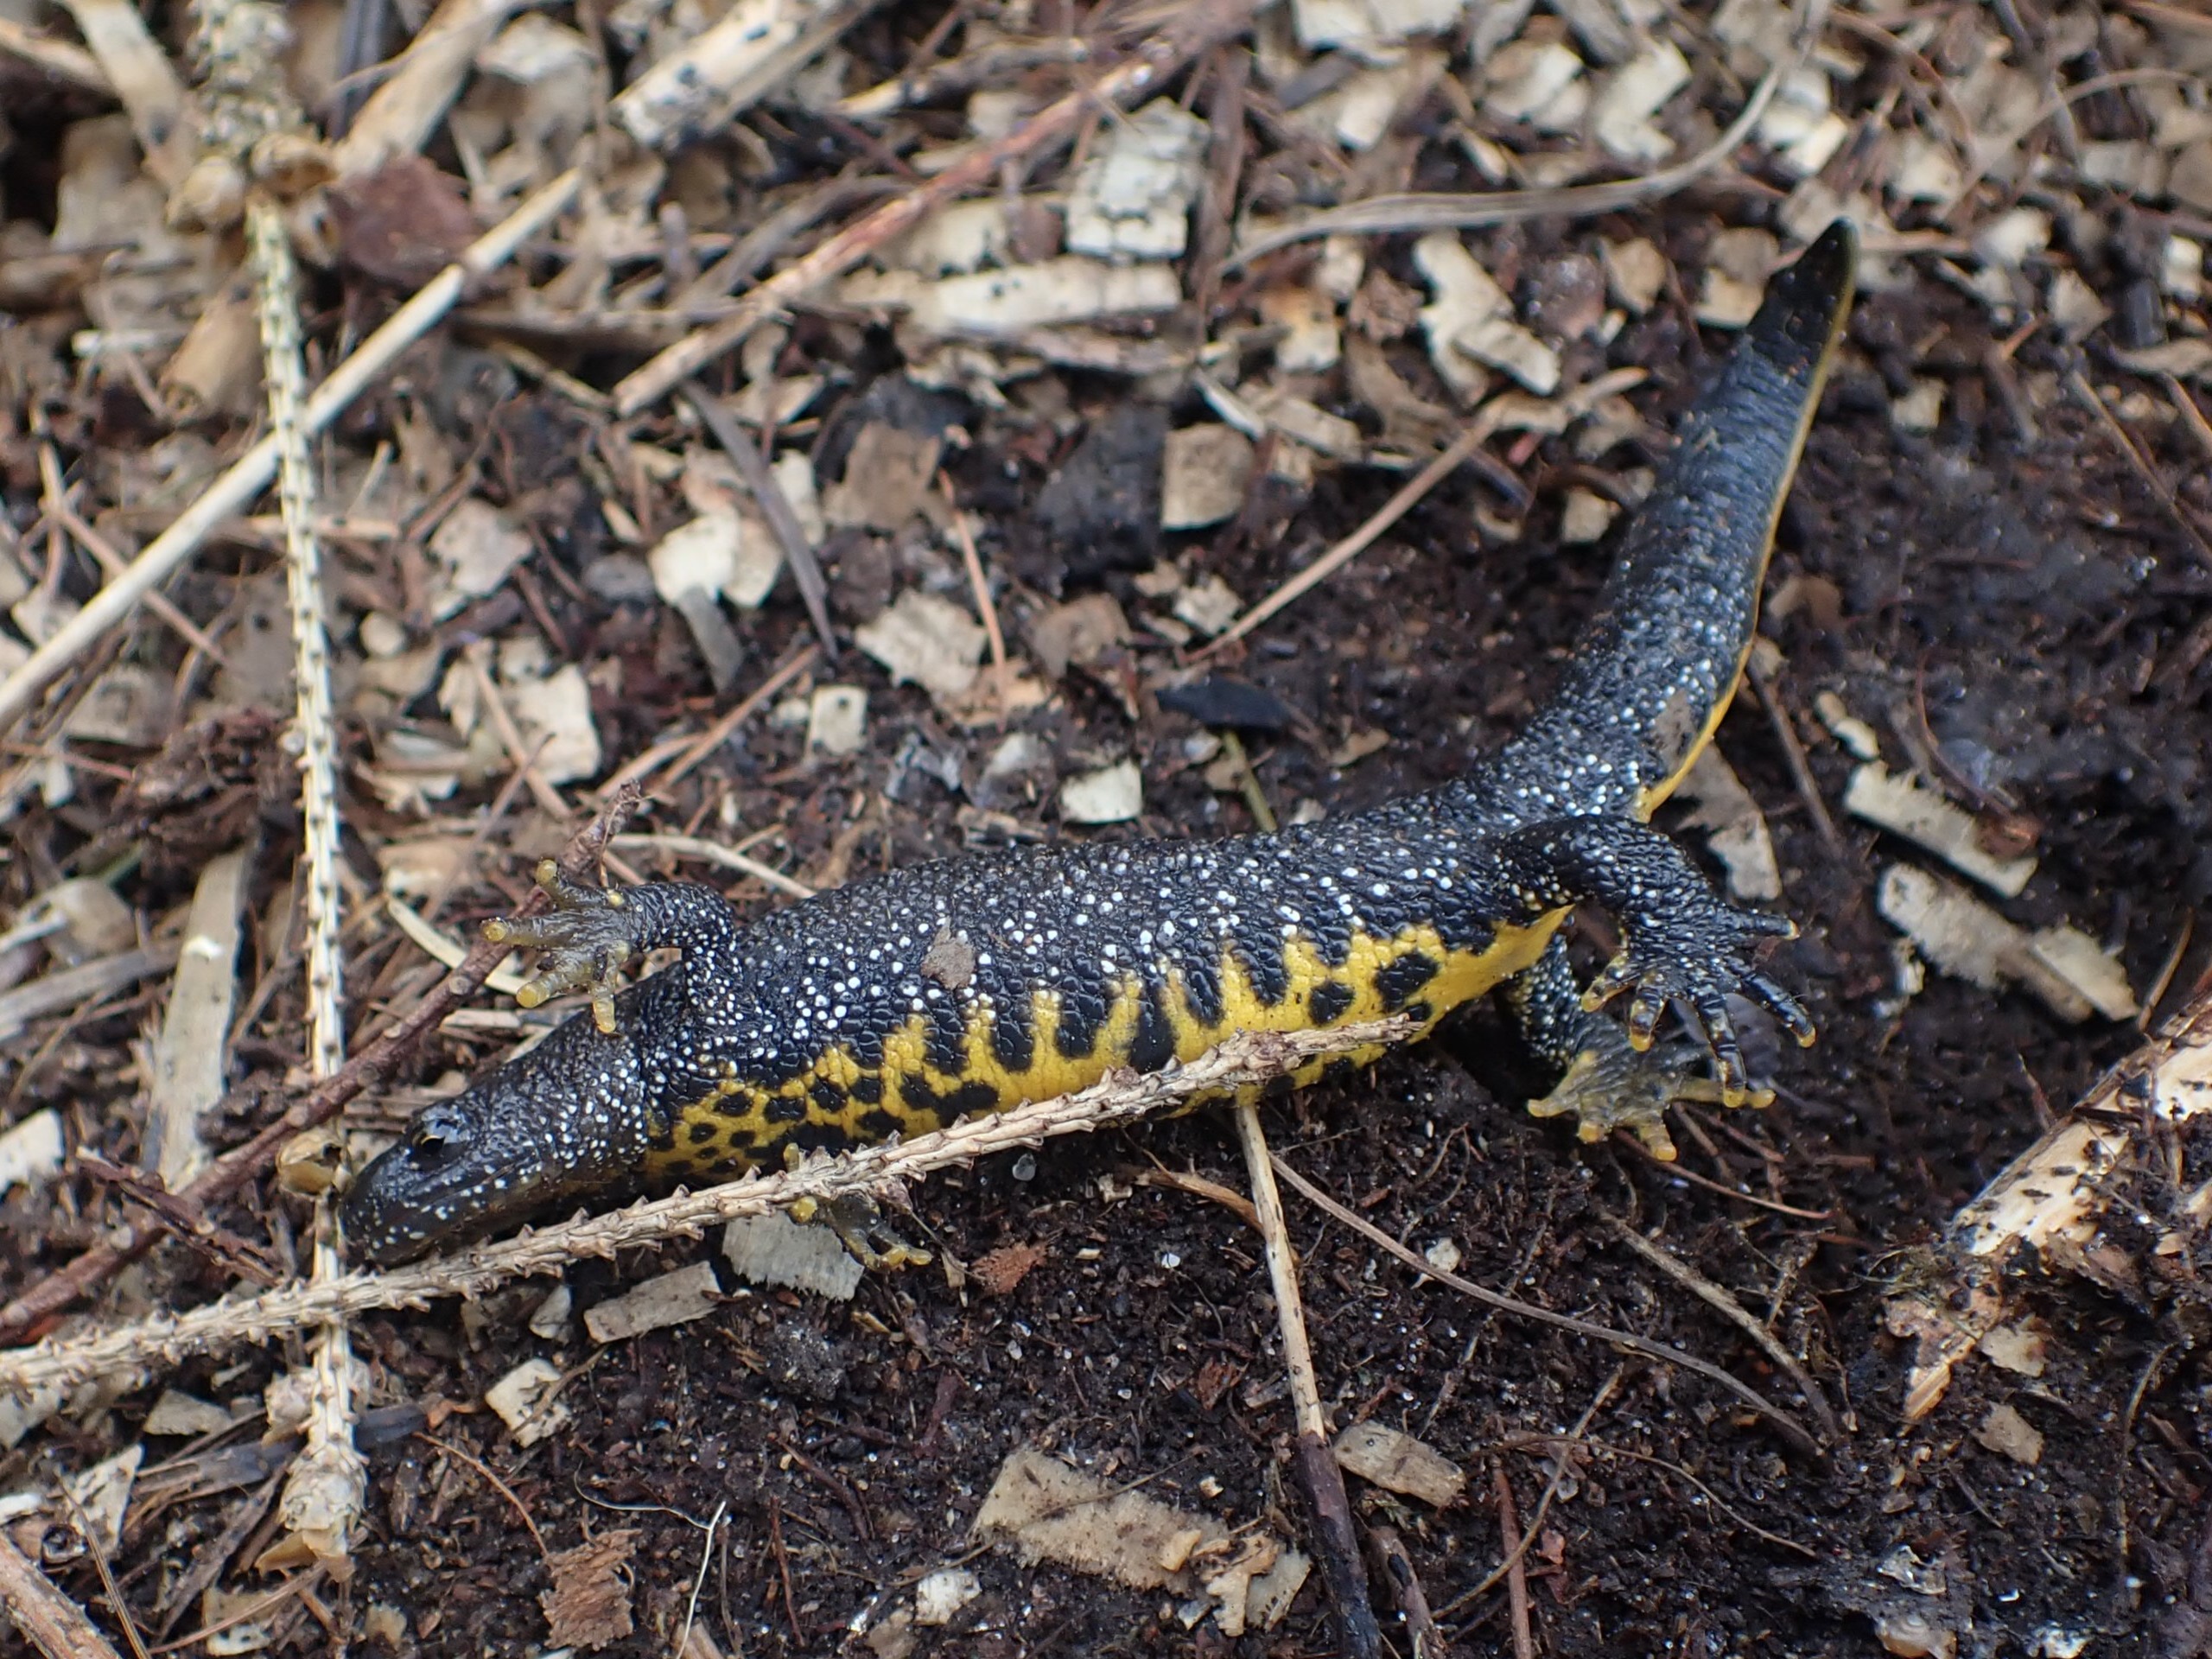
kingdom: Animalia
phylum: Chordata
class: Amphibia
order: Caudata
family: Salamandridae
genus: Triturus
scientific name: Triturus cristatus
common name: Stor vandsalamander
